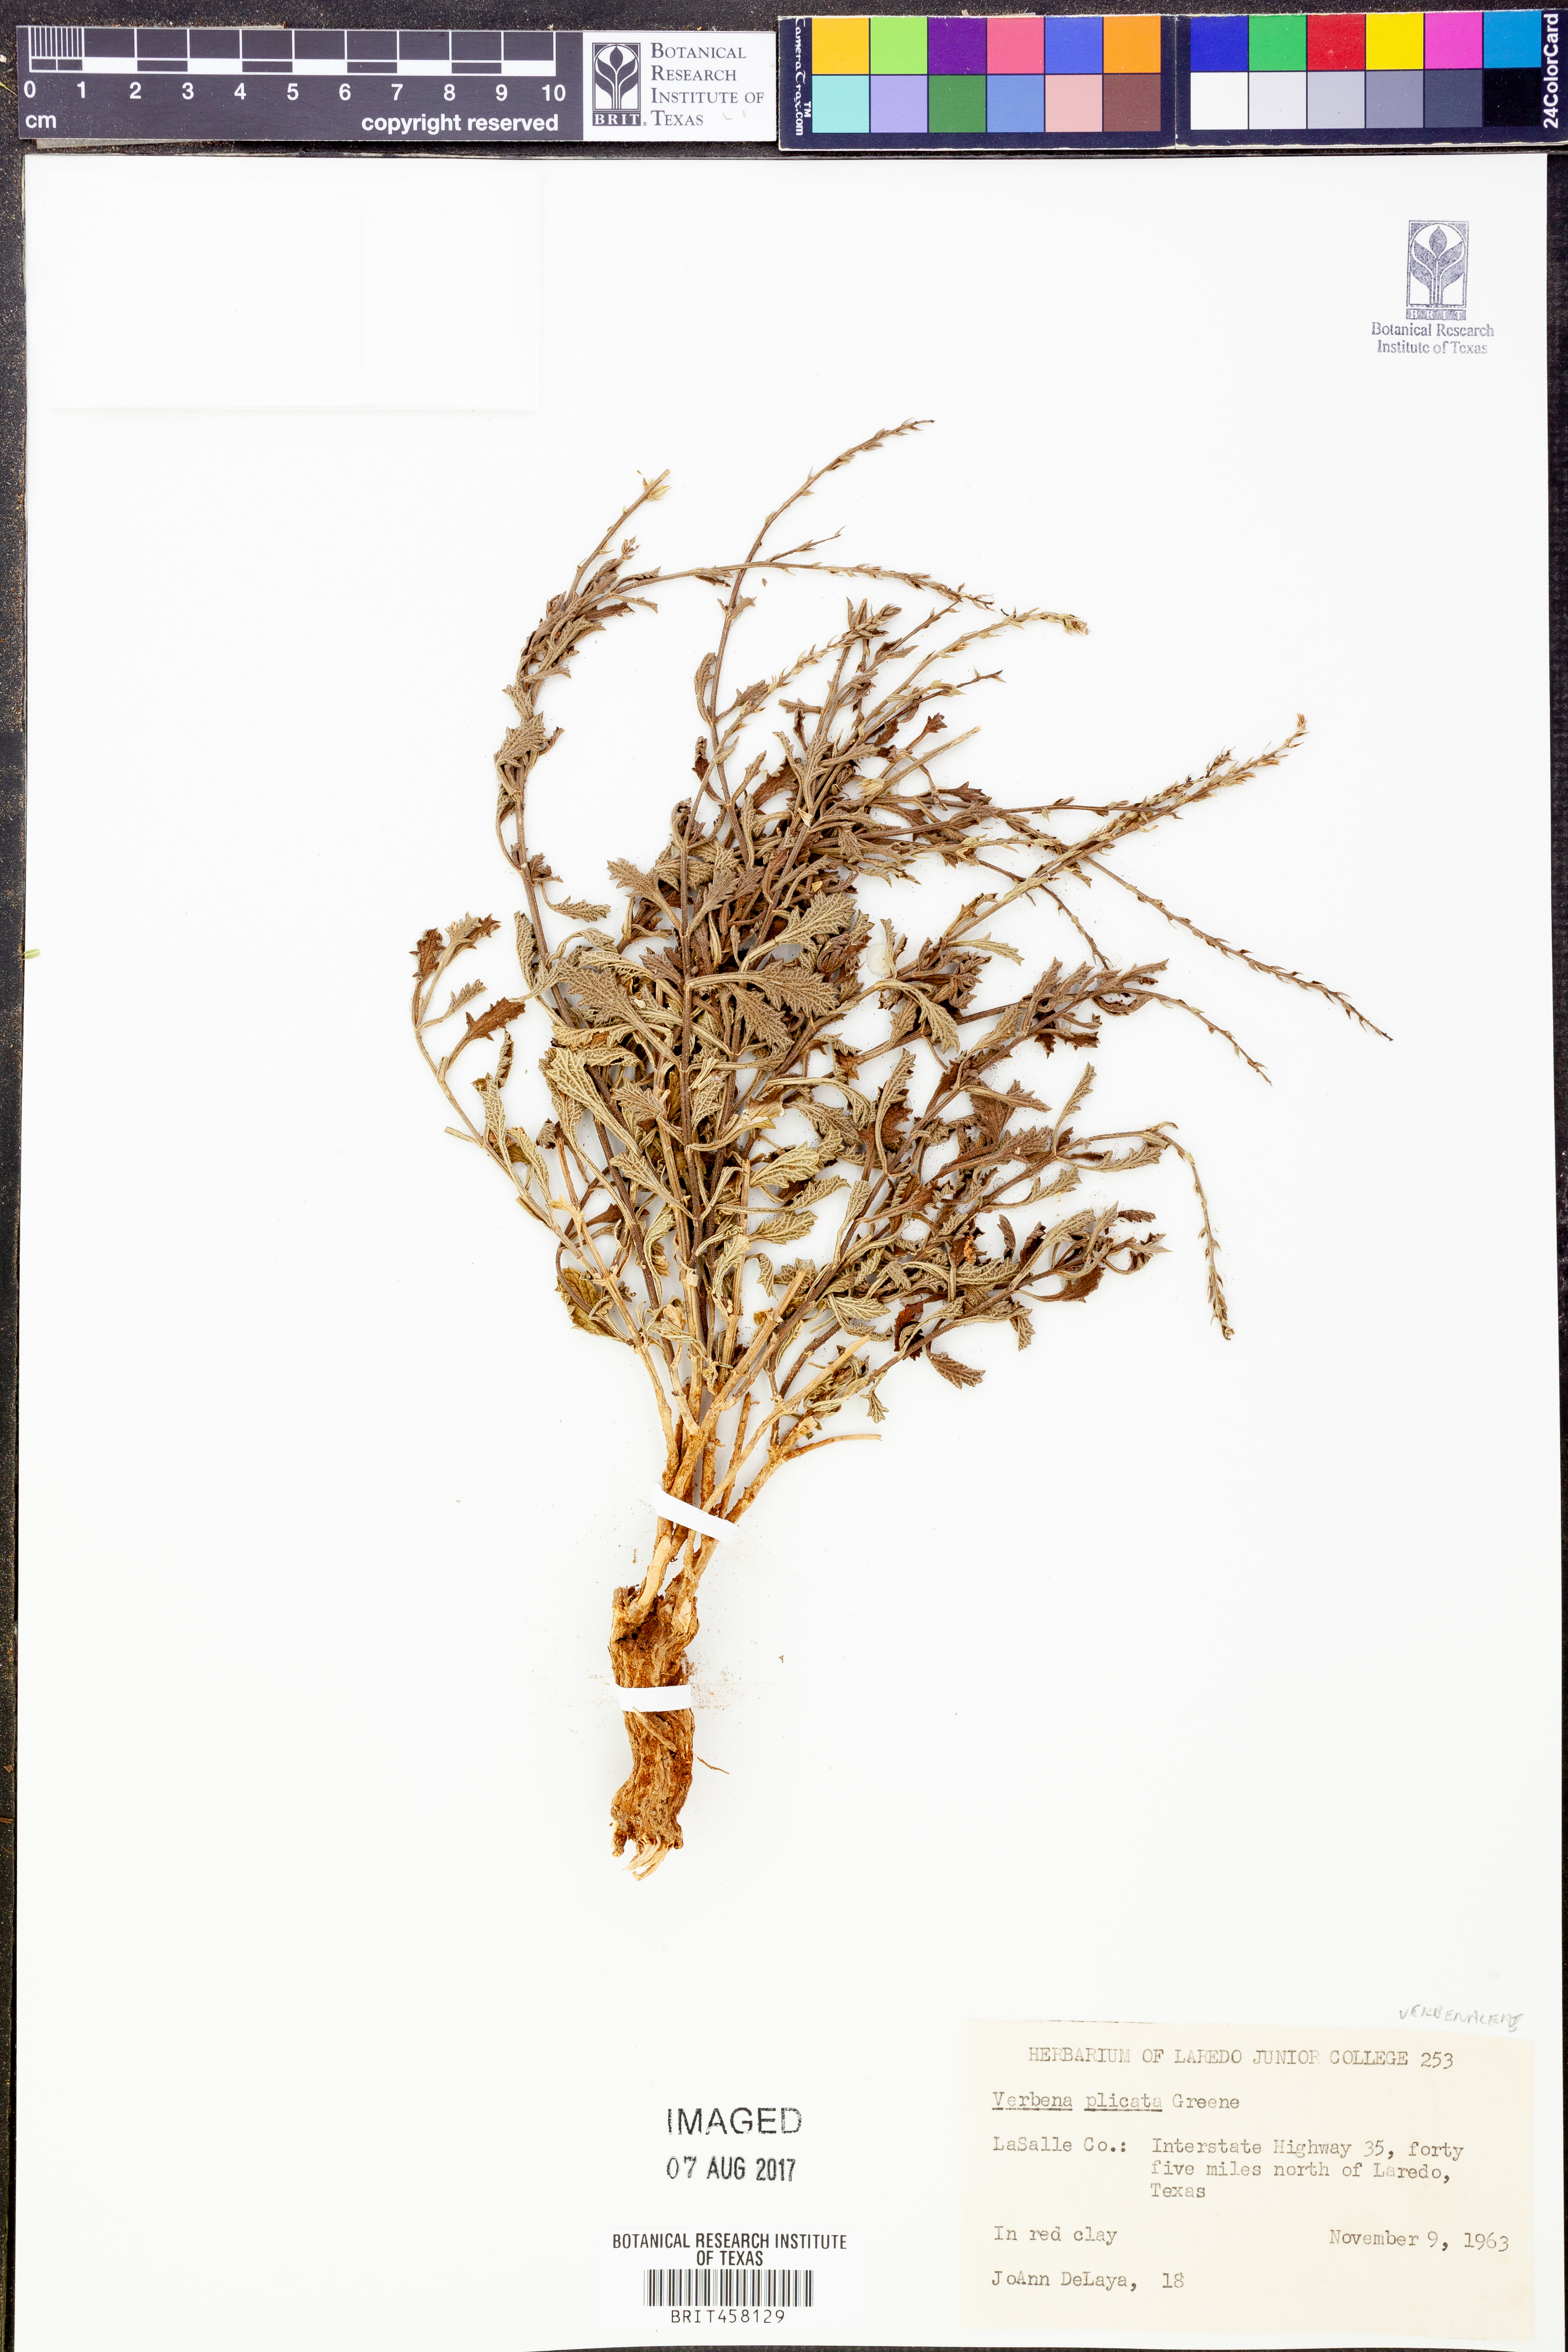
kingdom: Plantae
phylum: Tracheophyta
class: Magnoliopsida
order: Lamiales
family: Verbenaceae
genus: Verbena
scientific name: Verbena plicata
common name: Fan-leaf vervain
